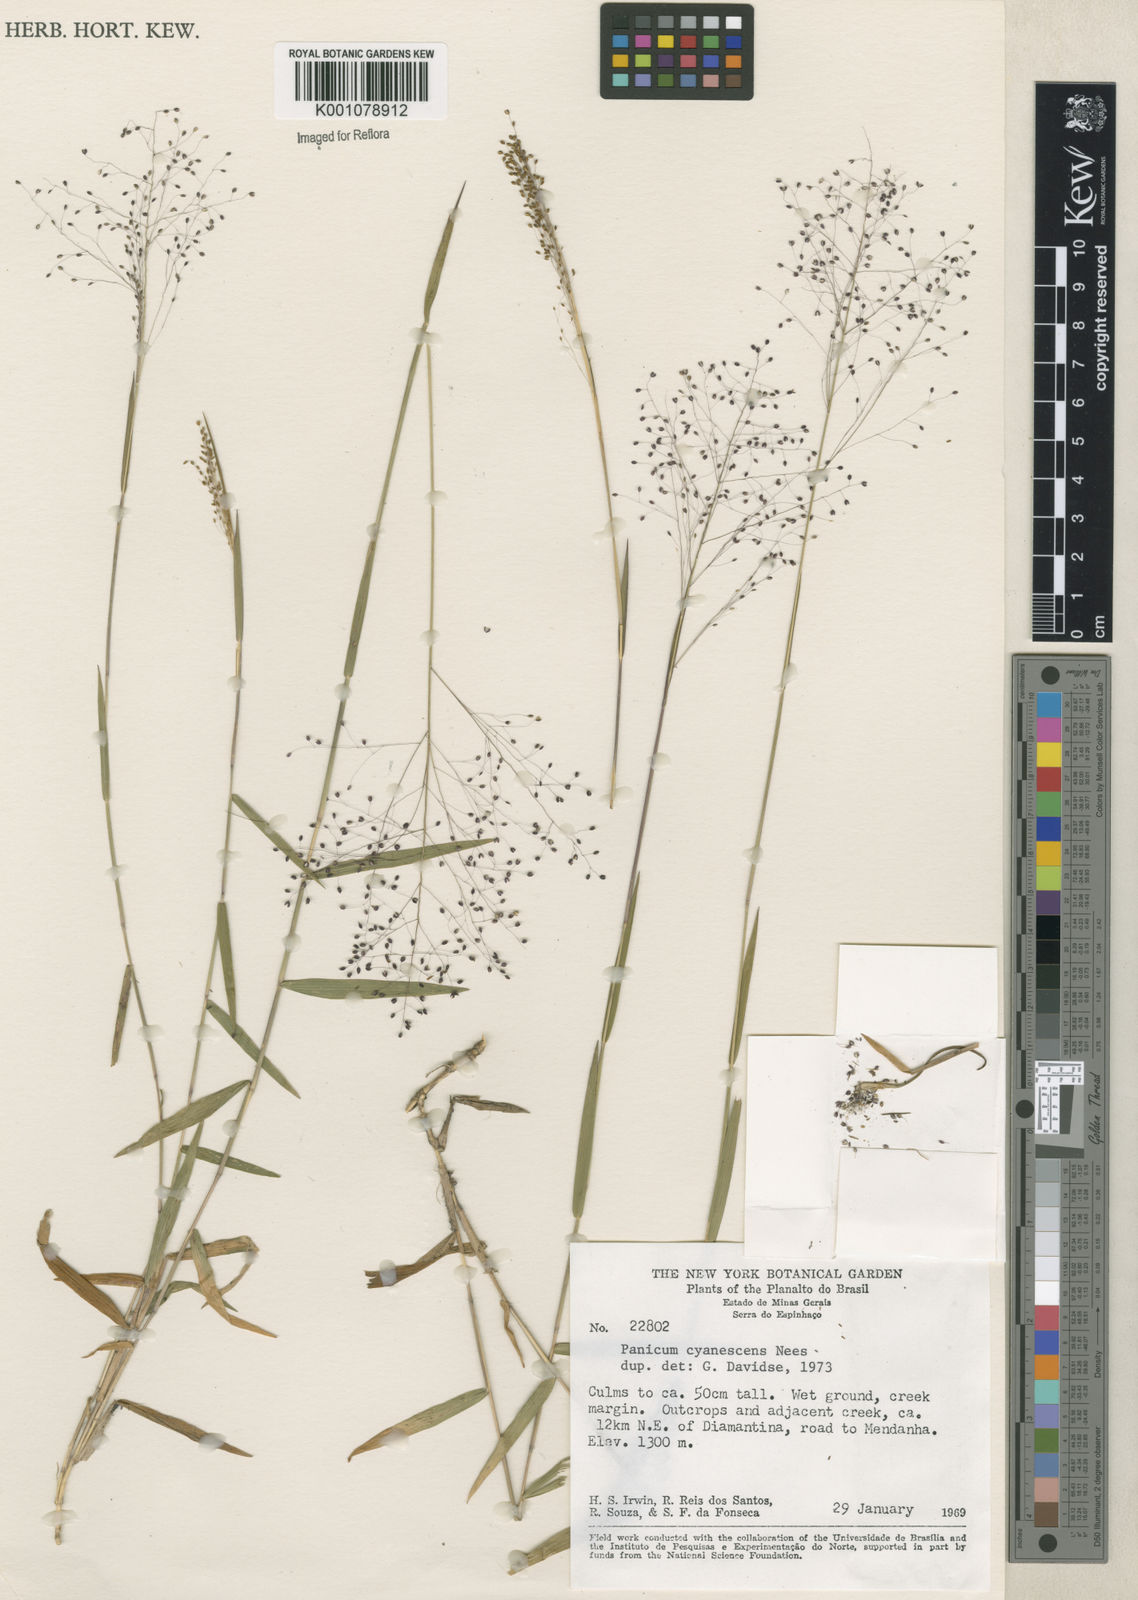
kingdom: Plantae
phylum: Tracheophyta
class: Liliopsida
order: Poales
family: Poaceae
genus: Trichanthecium
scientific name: Trichanthecium cyanescens
